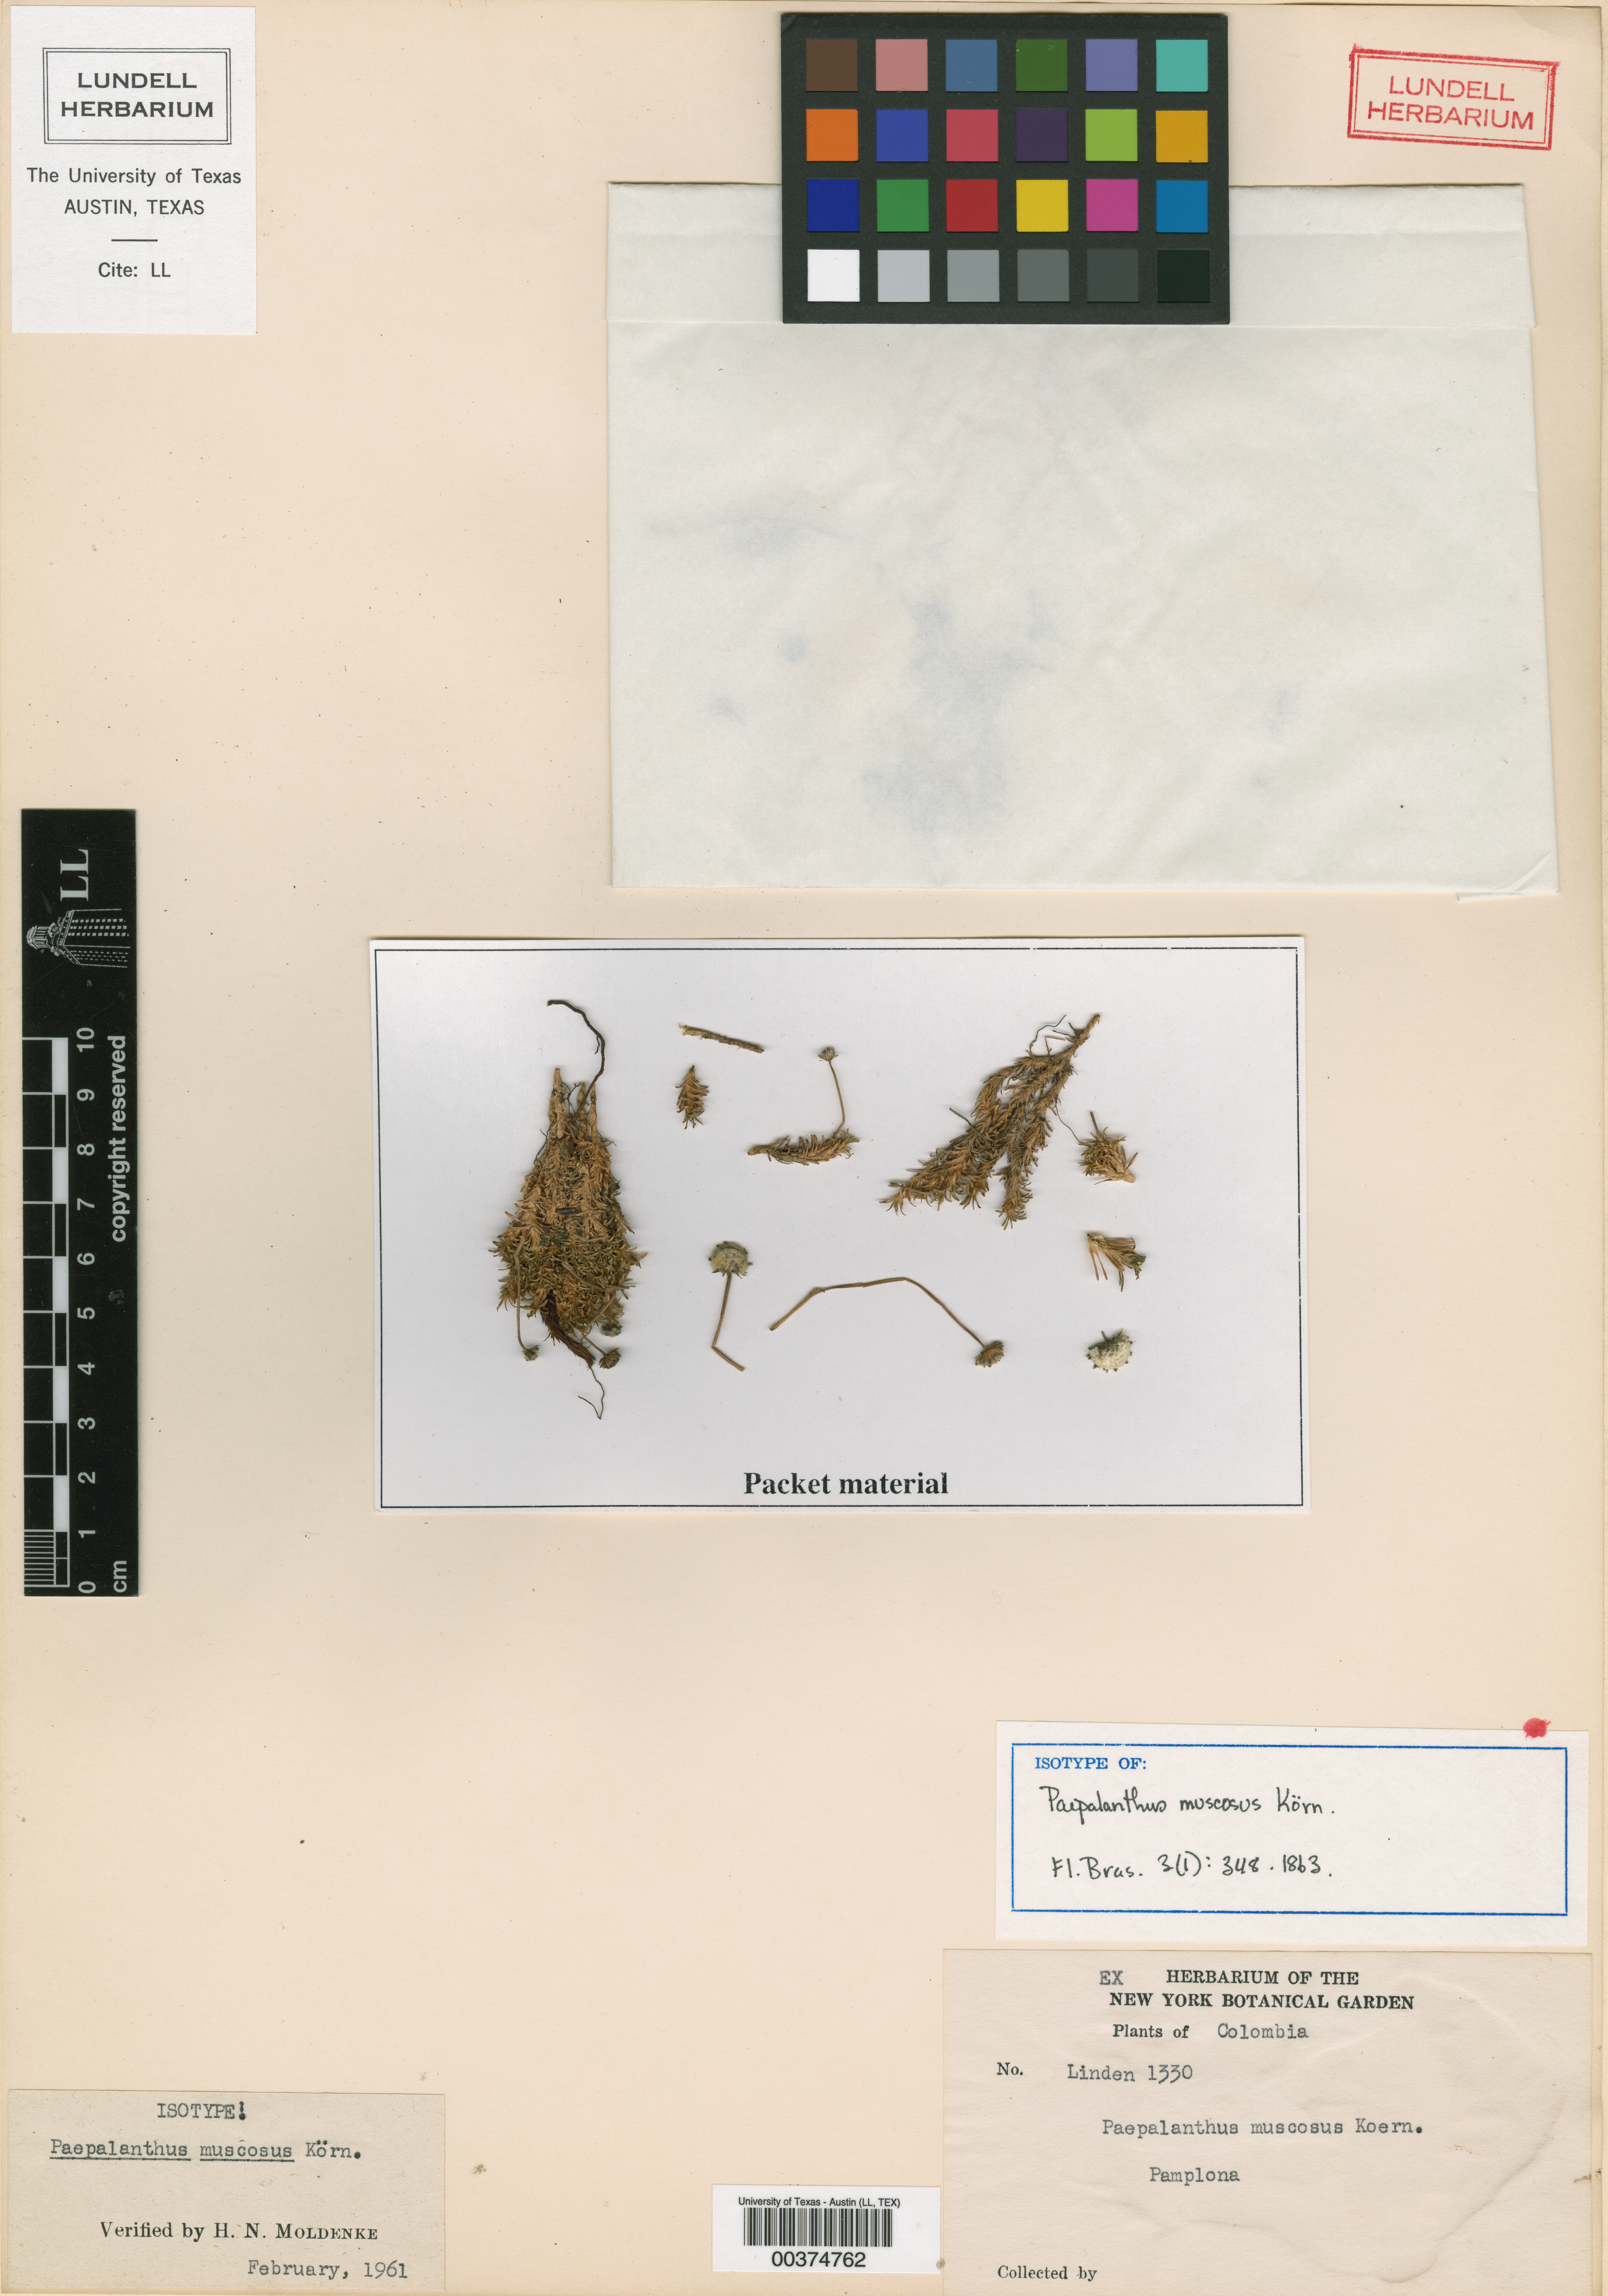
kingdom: Plantae
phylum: Tracheophyta
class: Liliopsida
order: Poales
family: Eriocaulaceae
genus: Paepalanthus
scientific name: Paepalanthus muscosus
